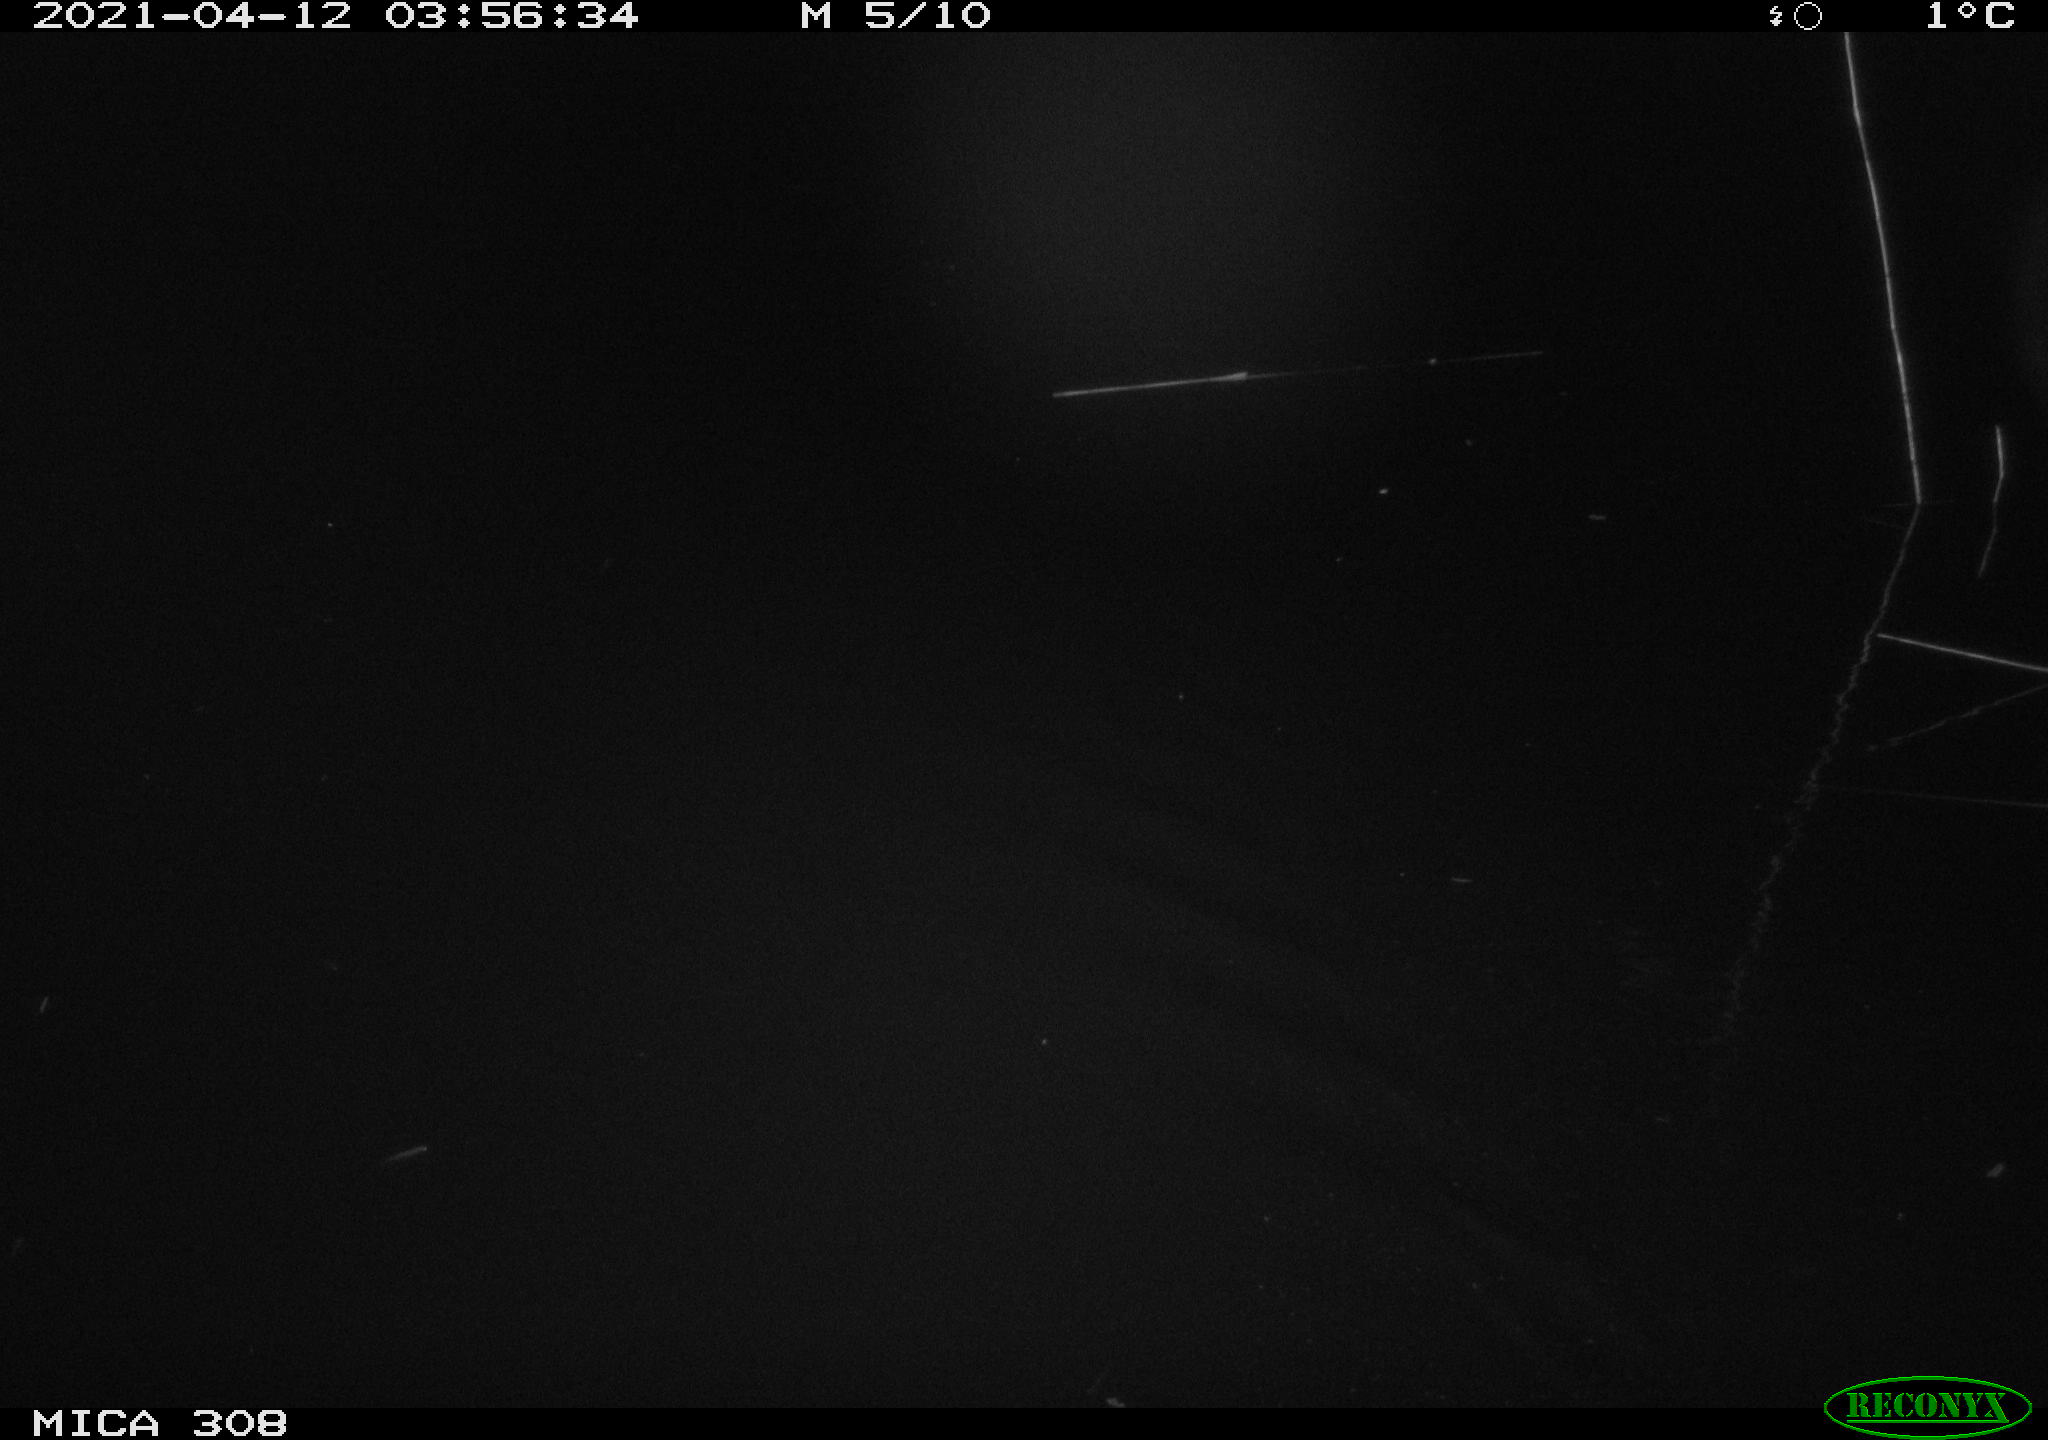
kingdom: Animalia
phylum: Chordata
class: Aves
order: Anseriformes
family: Anatidae
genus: Anas
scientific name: Anas platyrhynchos
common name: Mallard
